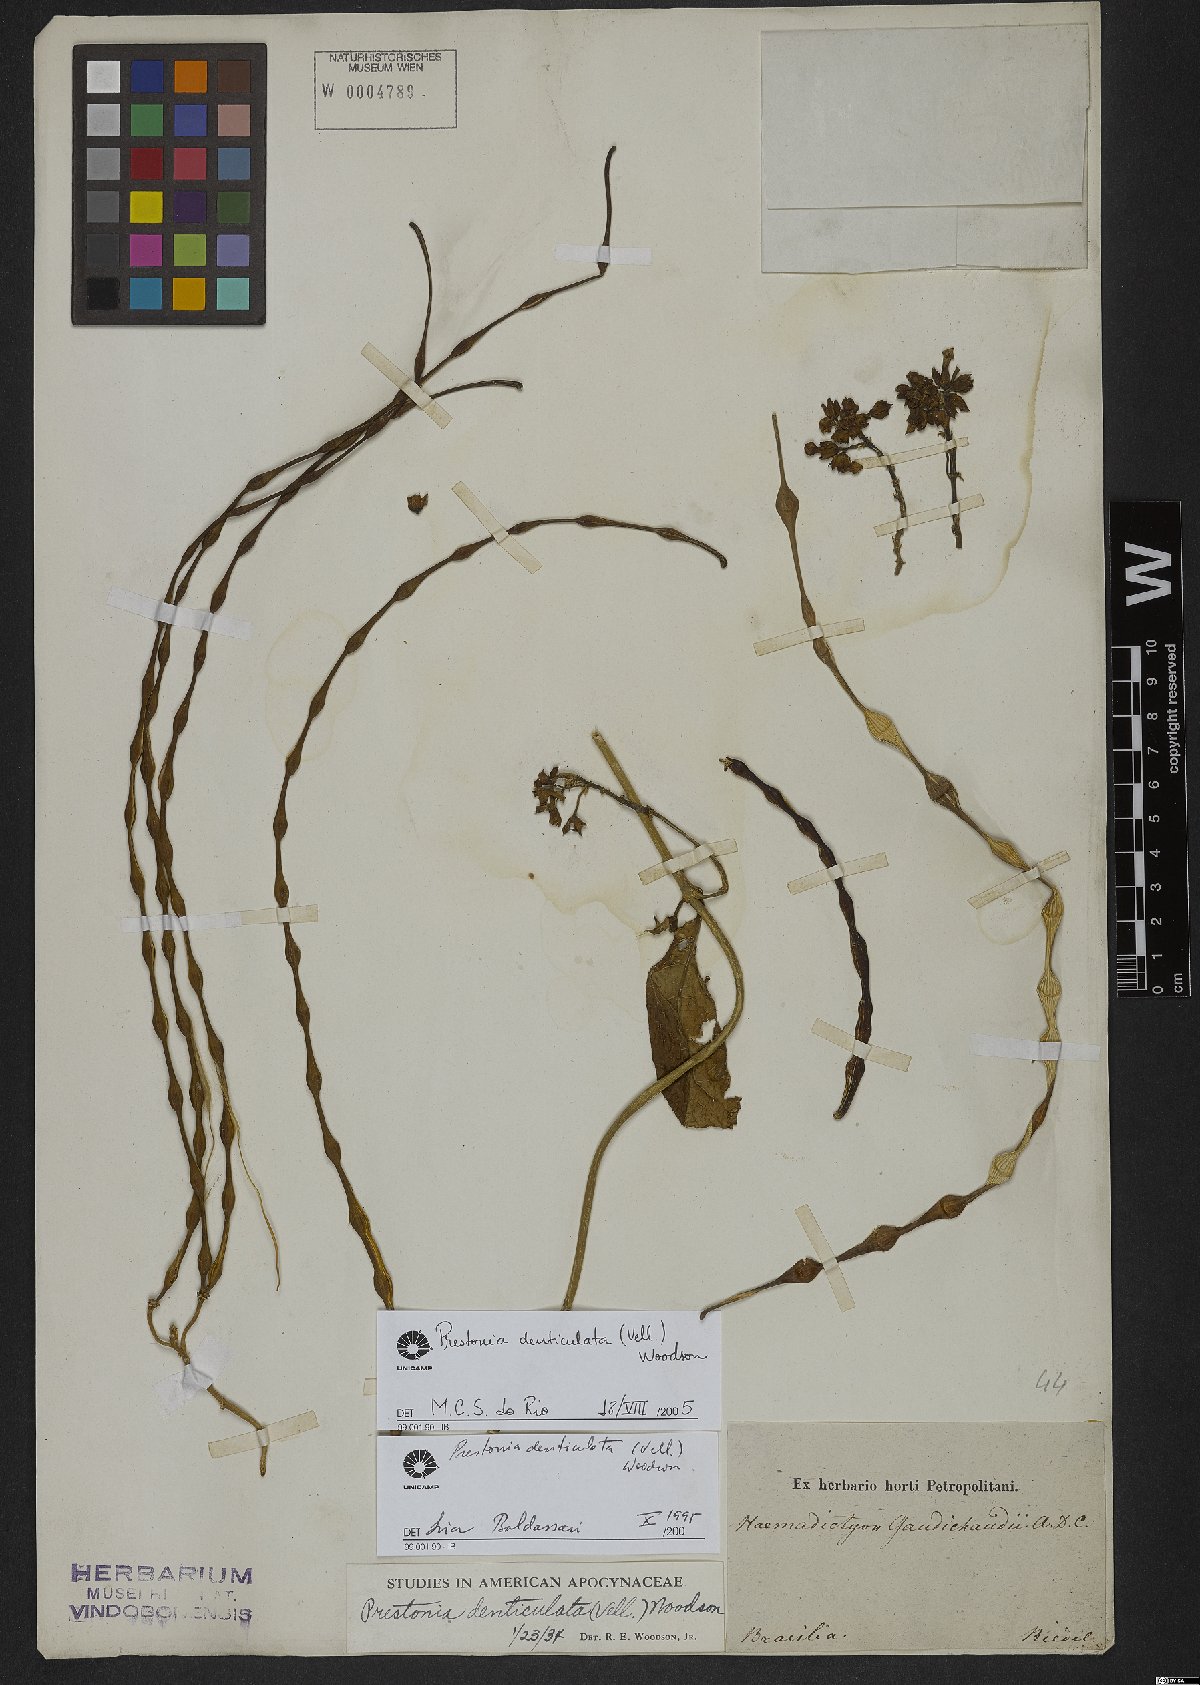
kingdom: Plantae
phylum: Tracheophyta
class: Magnoliopsida
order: Gentianales
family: Apocynaceae
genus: Prestonia
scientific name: Prestonia denticulata
